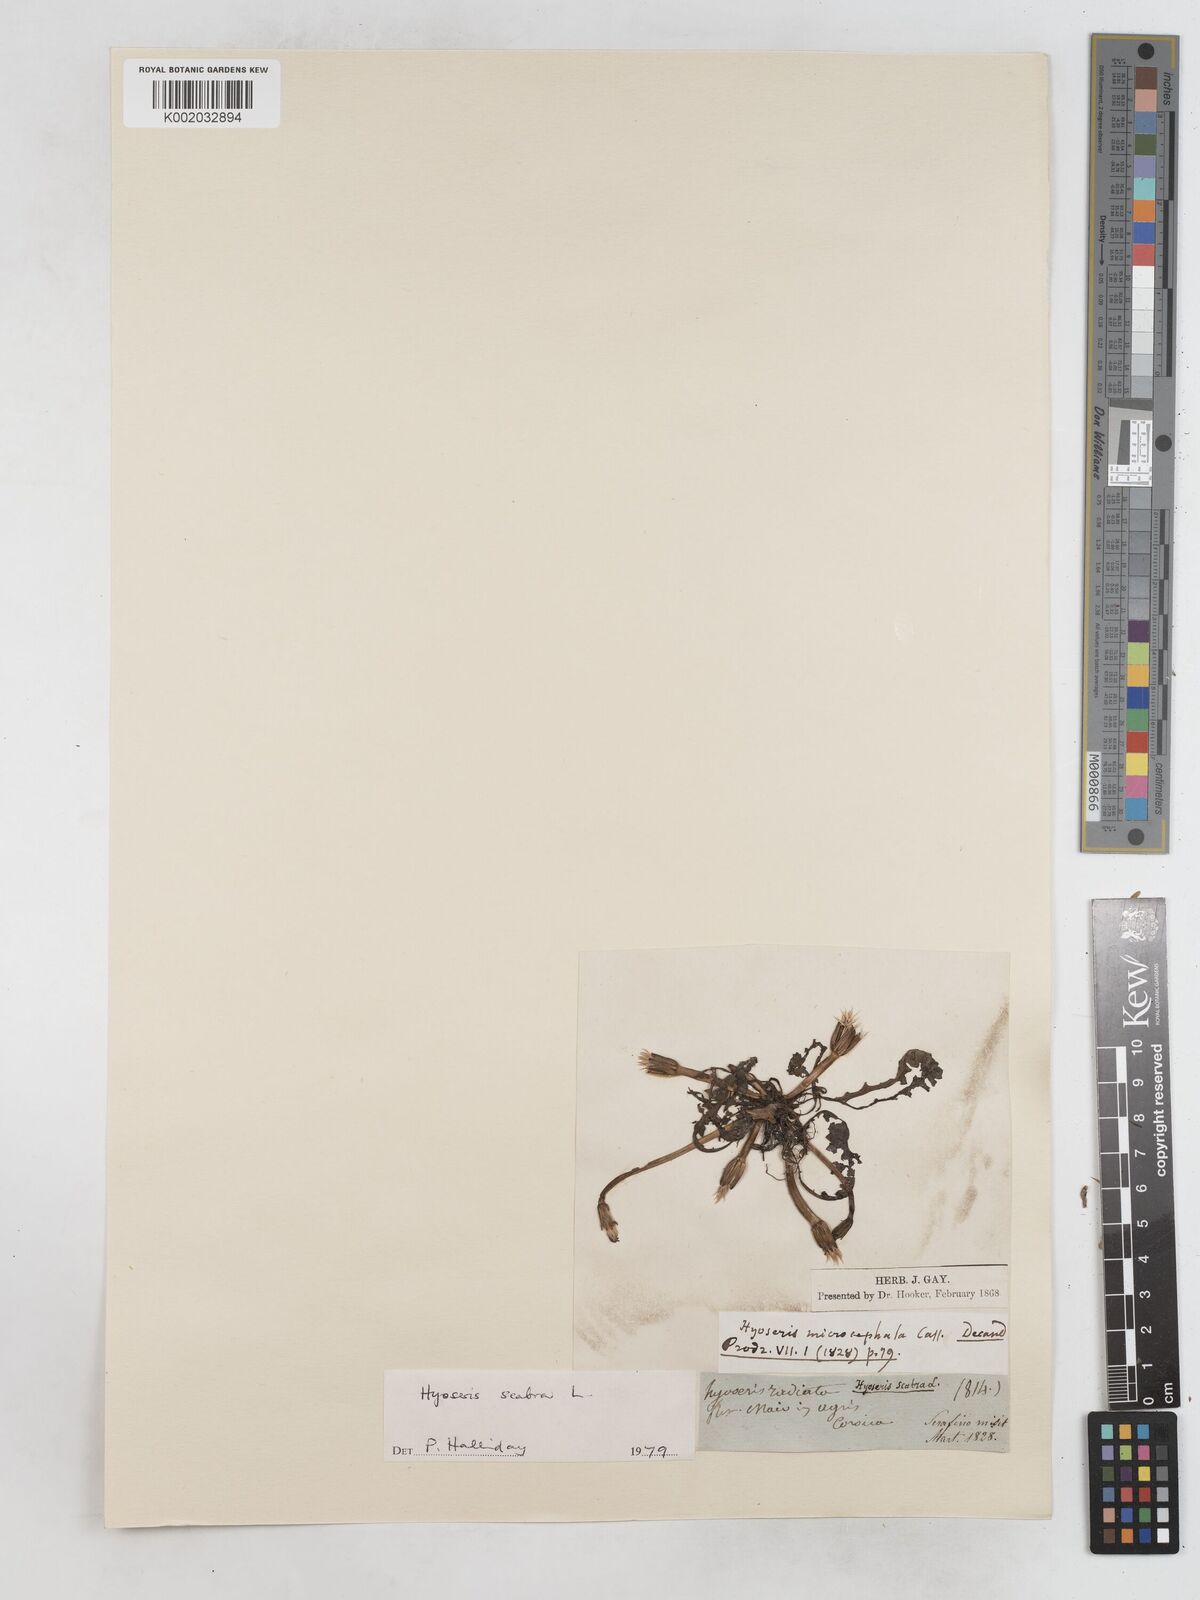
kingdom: Plantae
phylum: Tracheophyta
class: Magnoliopsida
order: Asterales
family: Asteraceae
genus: Hyoseris
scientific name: Hyoseris scabra
